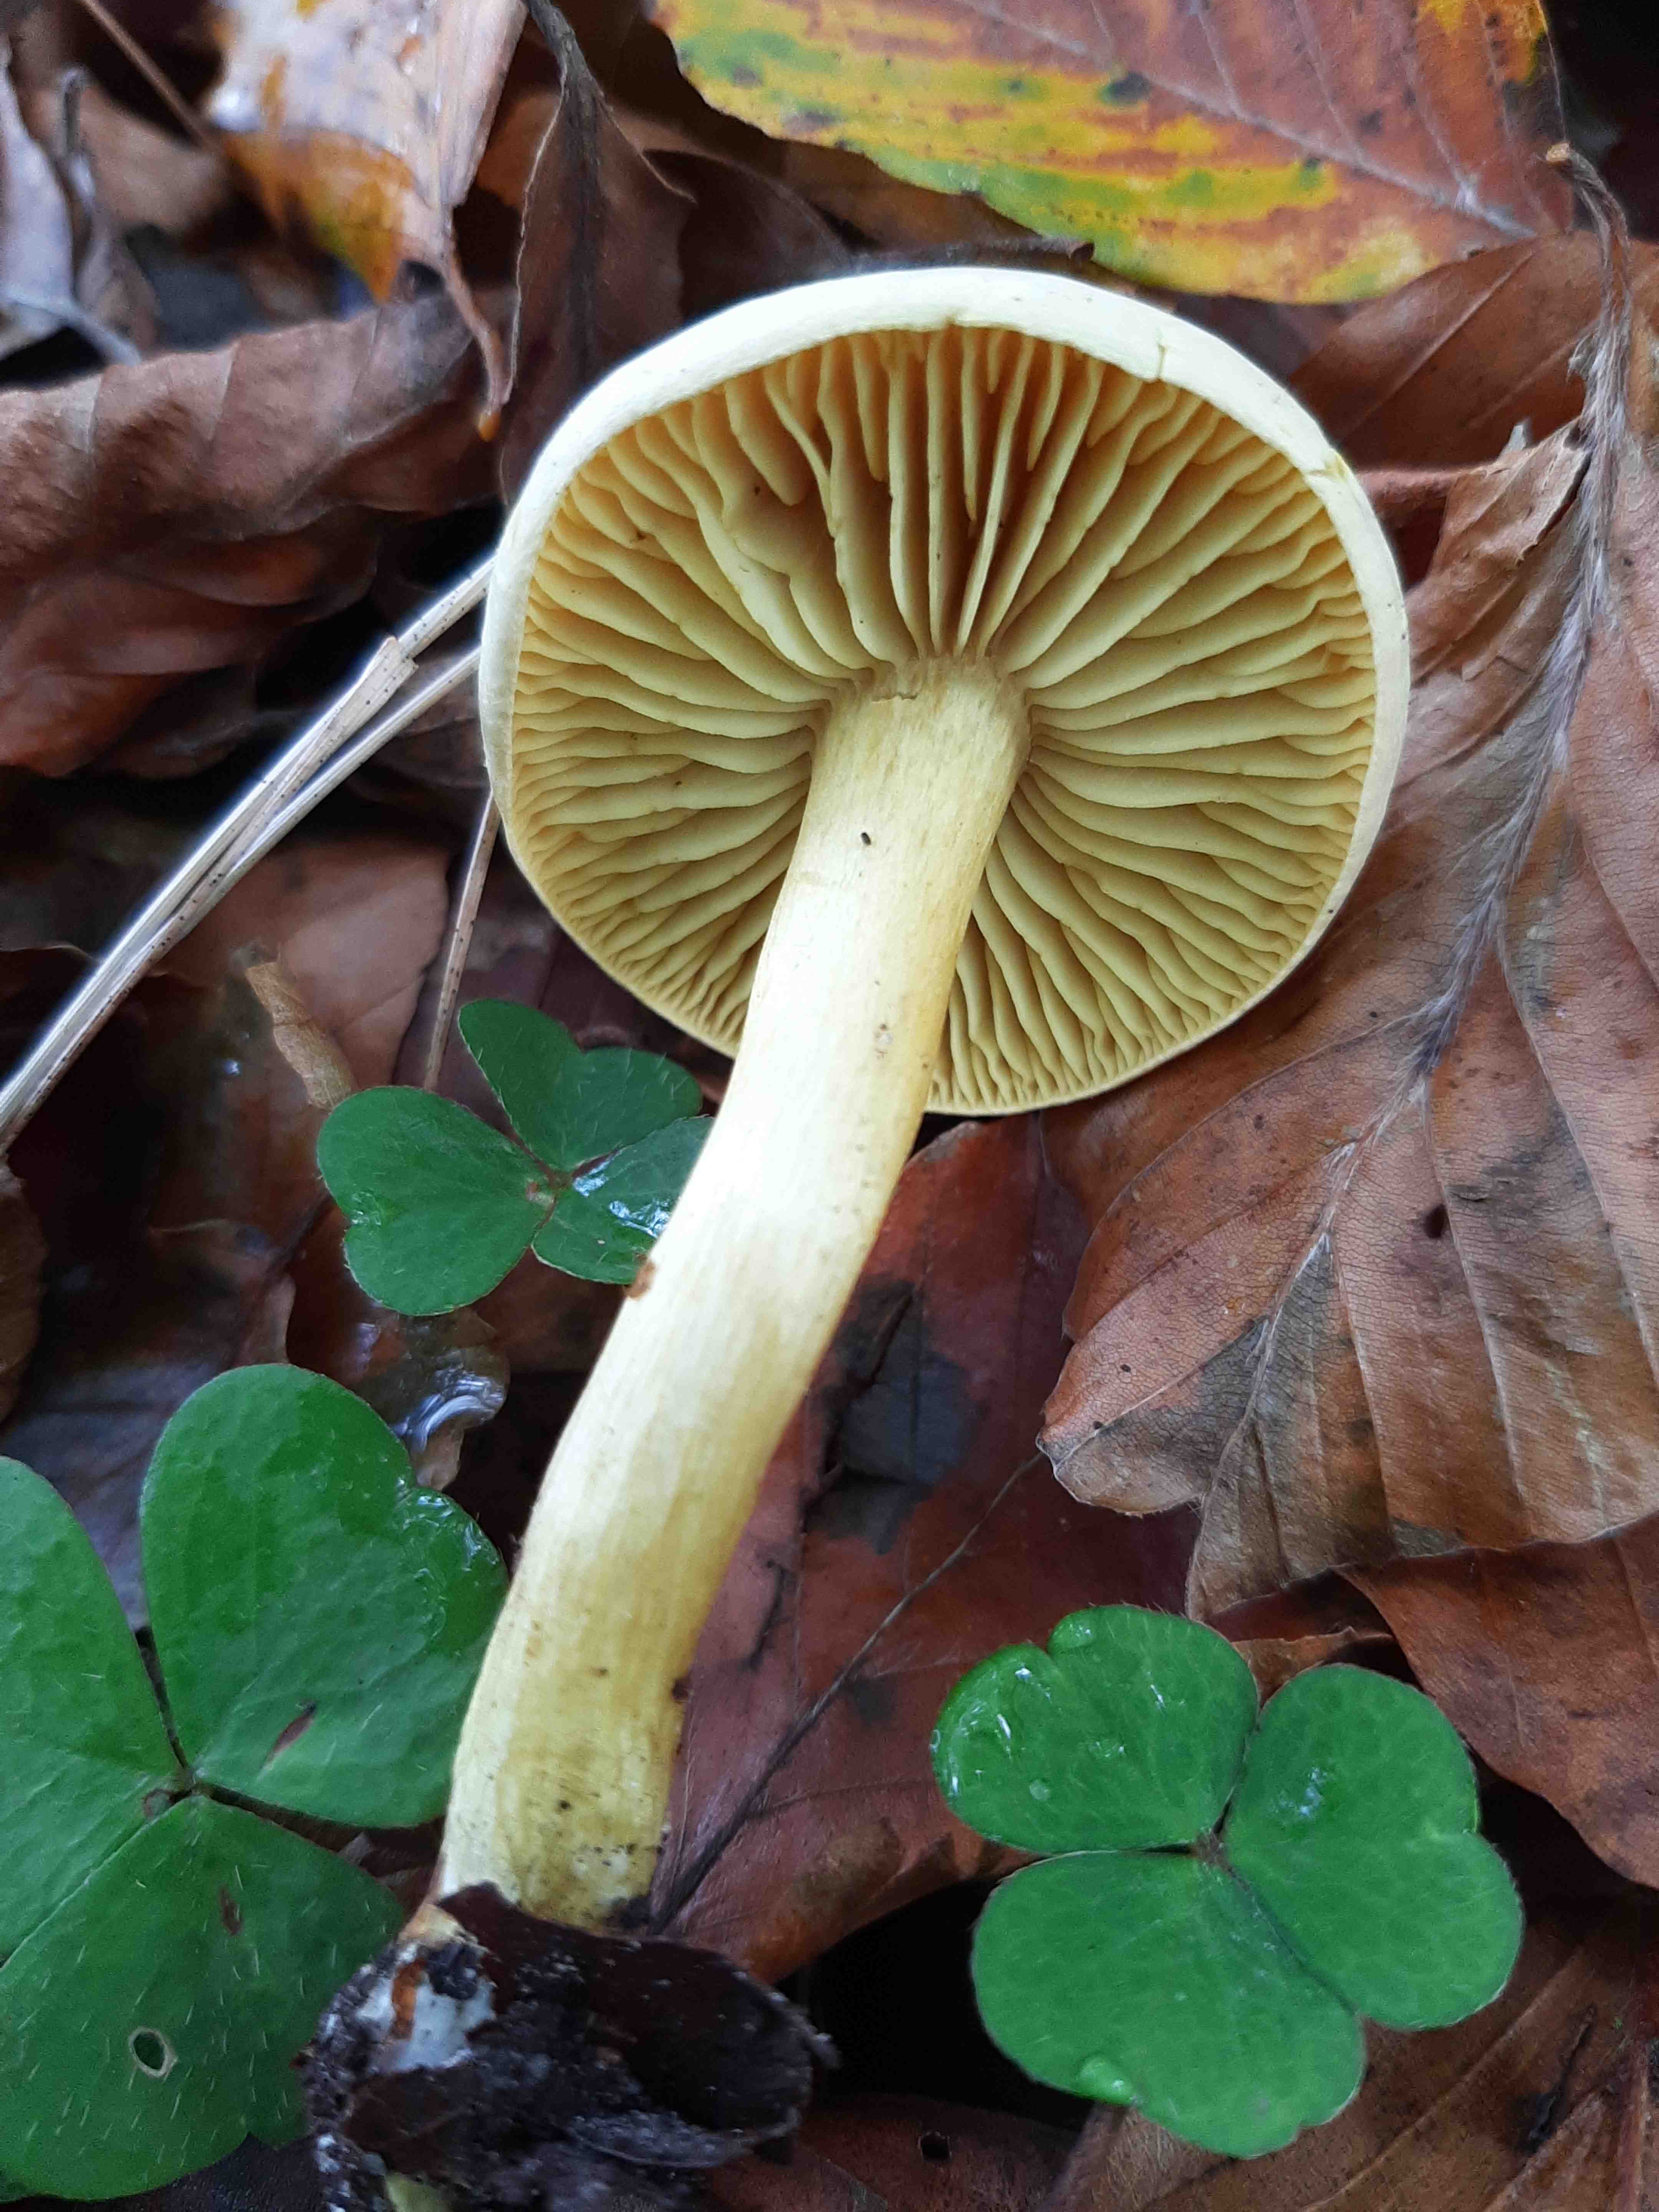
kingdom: Fungi
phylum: Basidiomycota
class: Agaricomycetes
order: Agaricales
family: Tricholomataceae
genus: Tricholoma
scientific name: Tricholoma sulphureum
